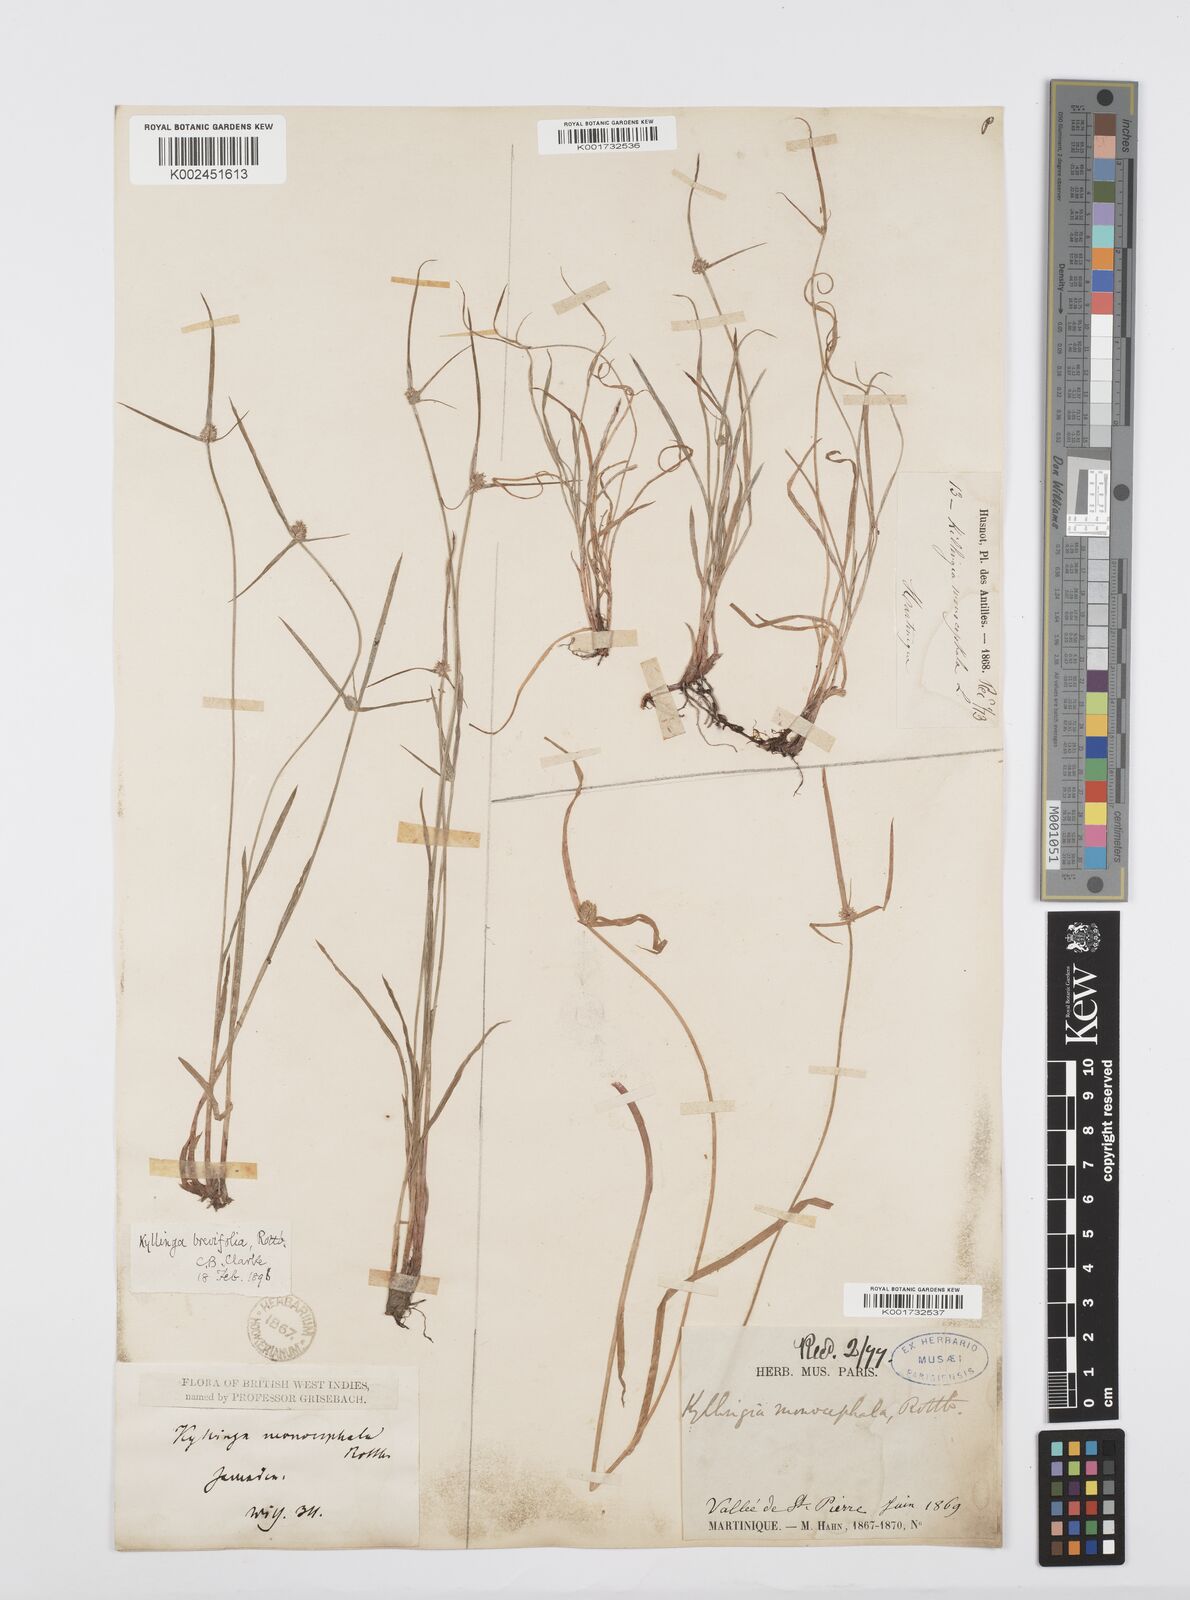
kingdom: Plantae
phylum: Tracheophyta
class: Liliopsida
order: Poales
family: Cyperaceae
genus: Cyperus
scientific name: Cyperus brevifolius
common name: Globe kyllinga
